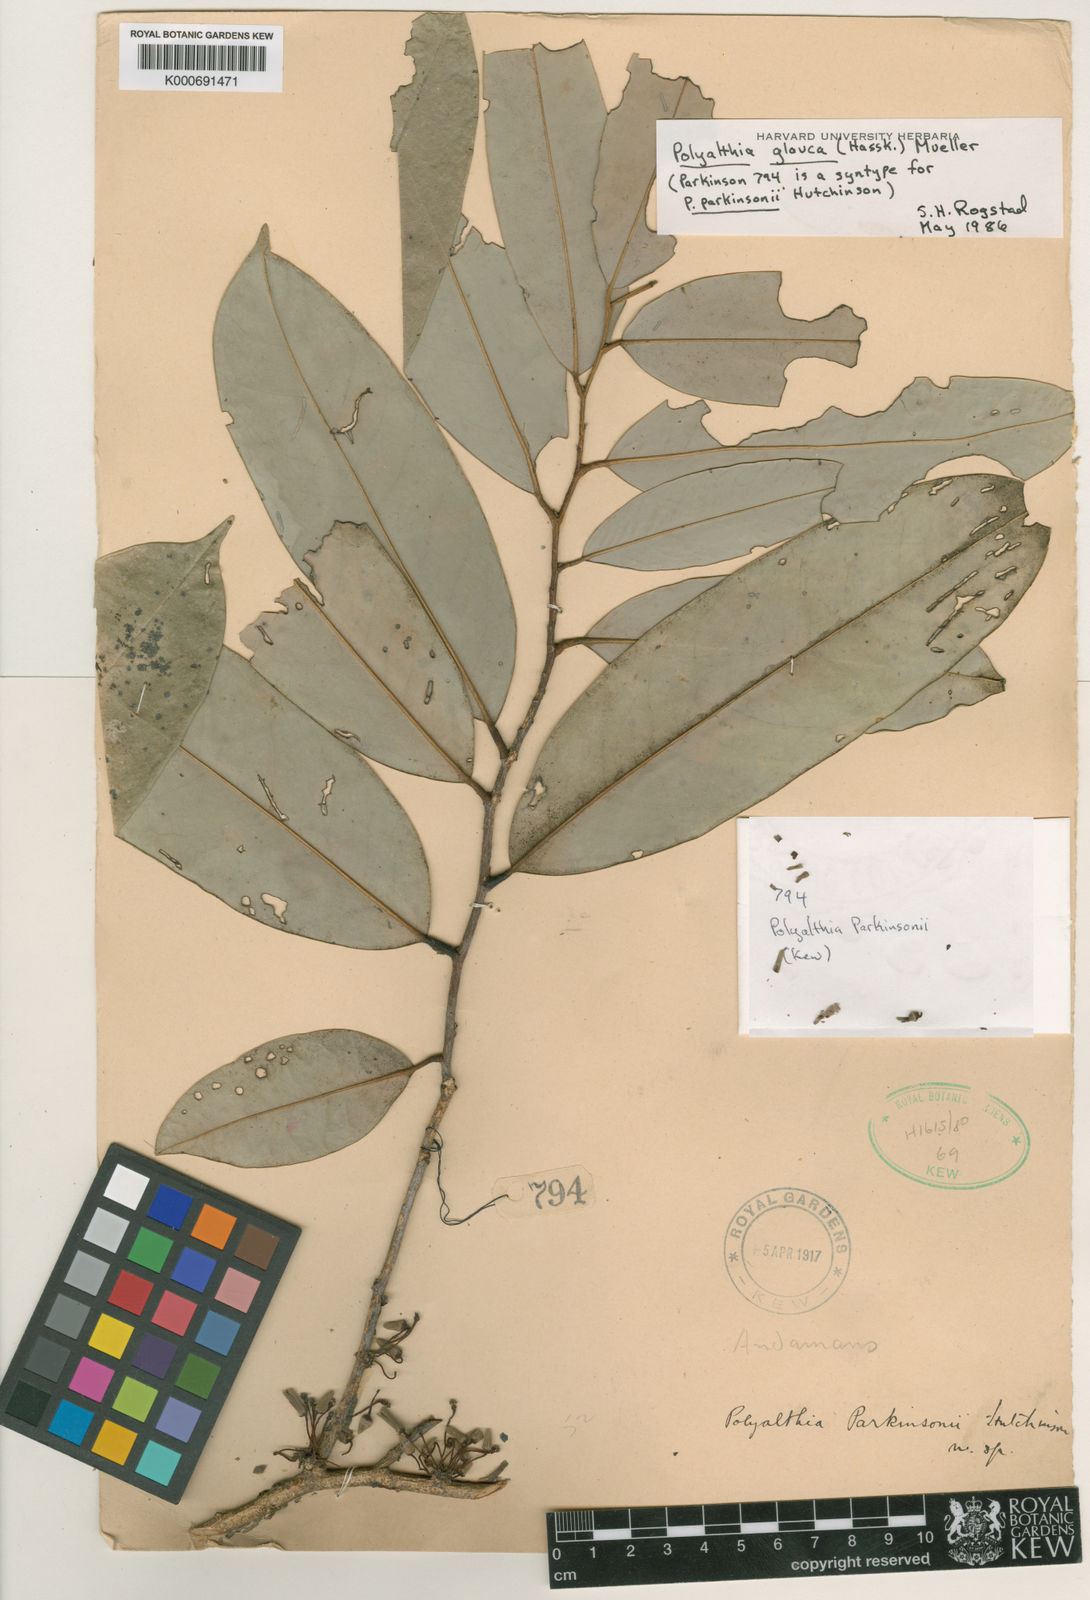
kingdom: Plantae
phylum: Tracheophyta
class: Magnoliopsida
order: Magnoliales
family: Annonaceae
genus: Maasia
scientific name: Maasia glauca
